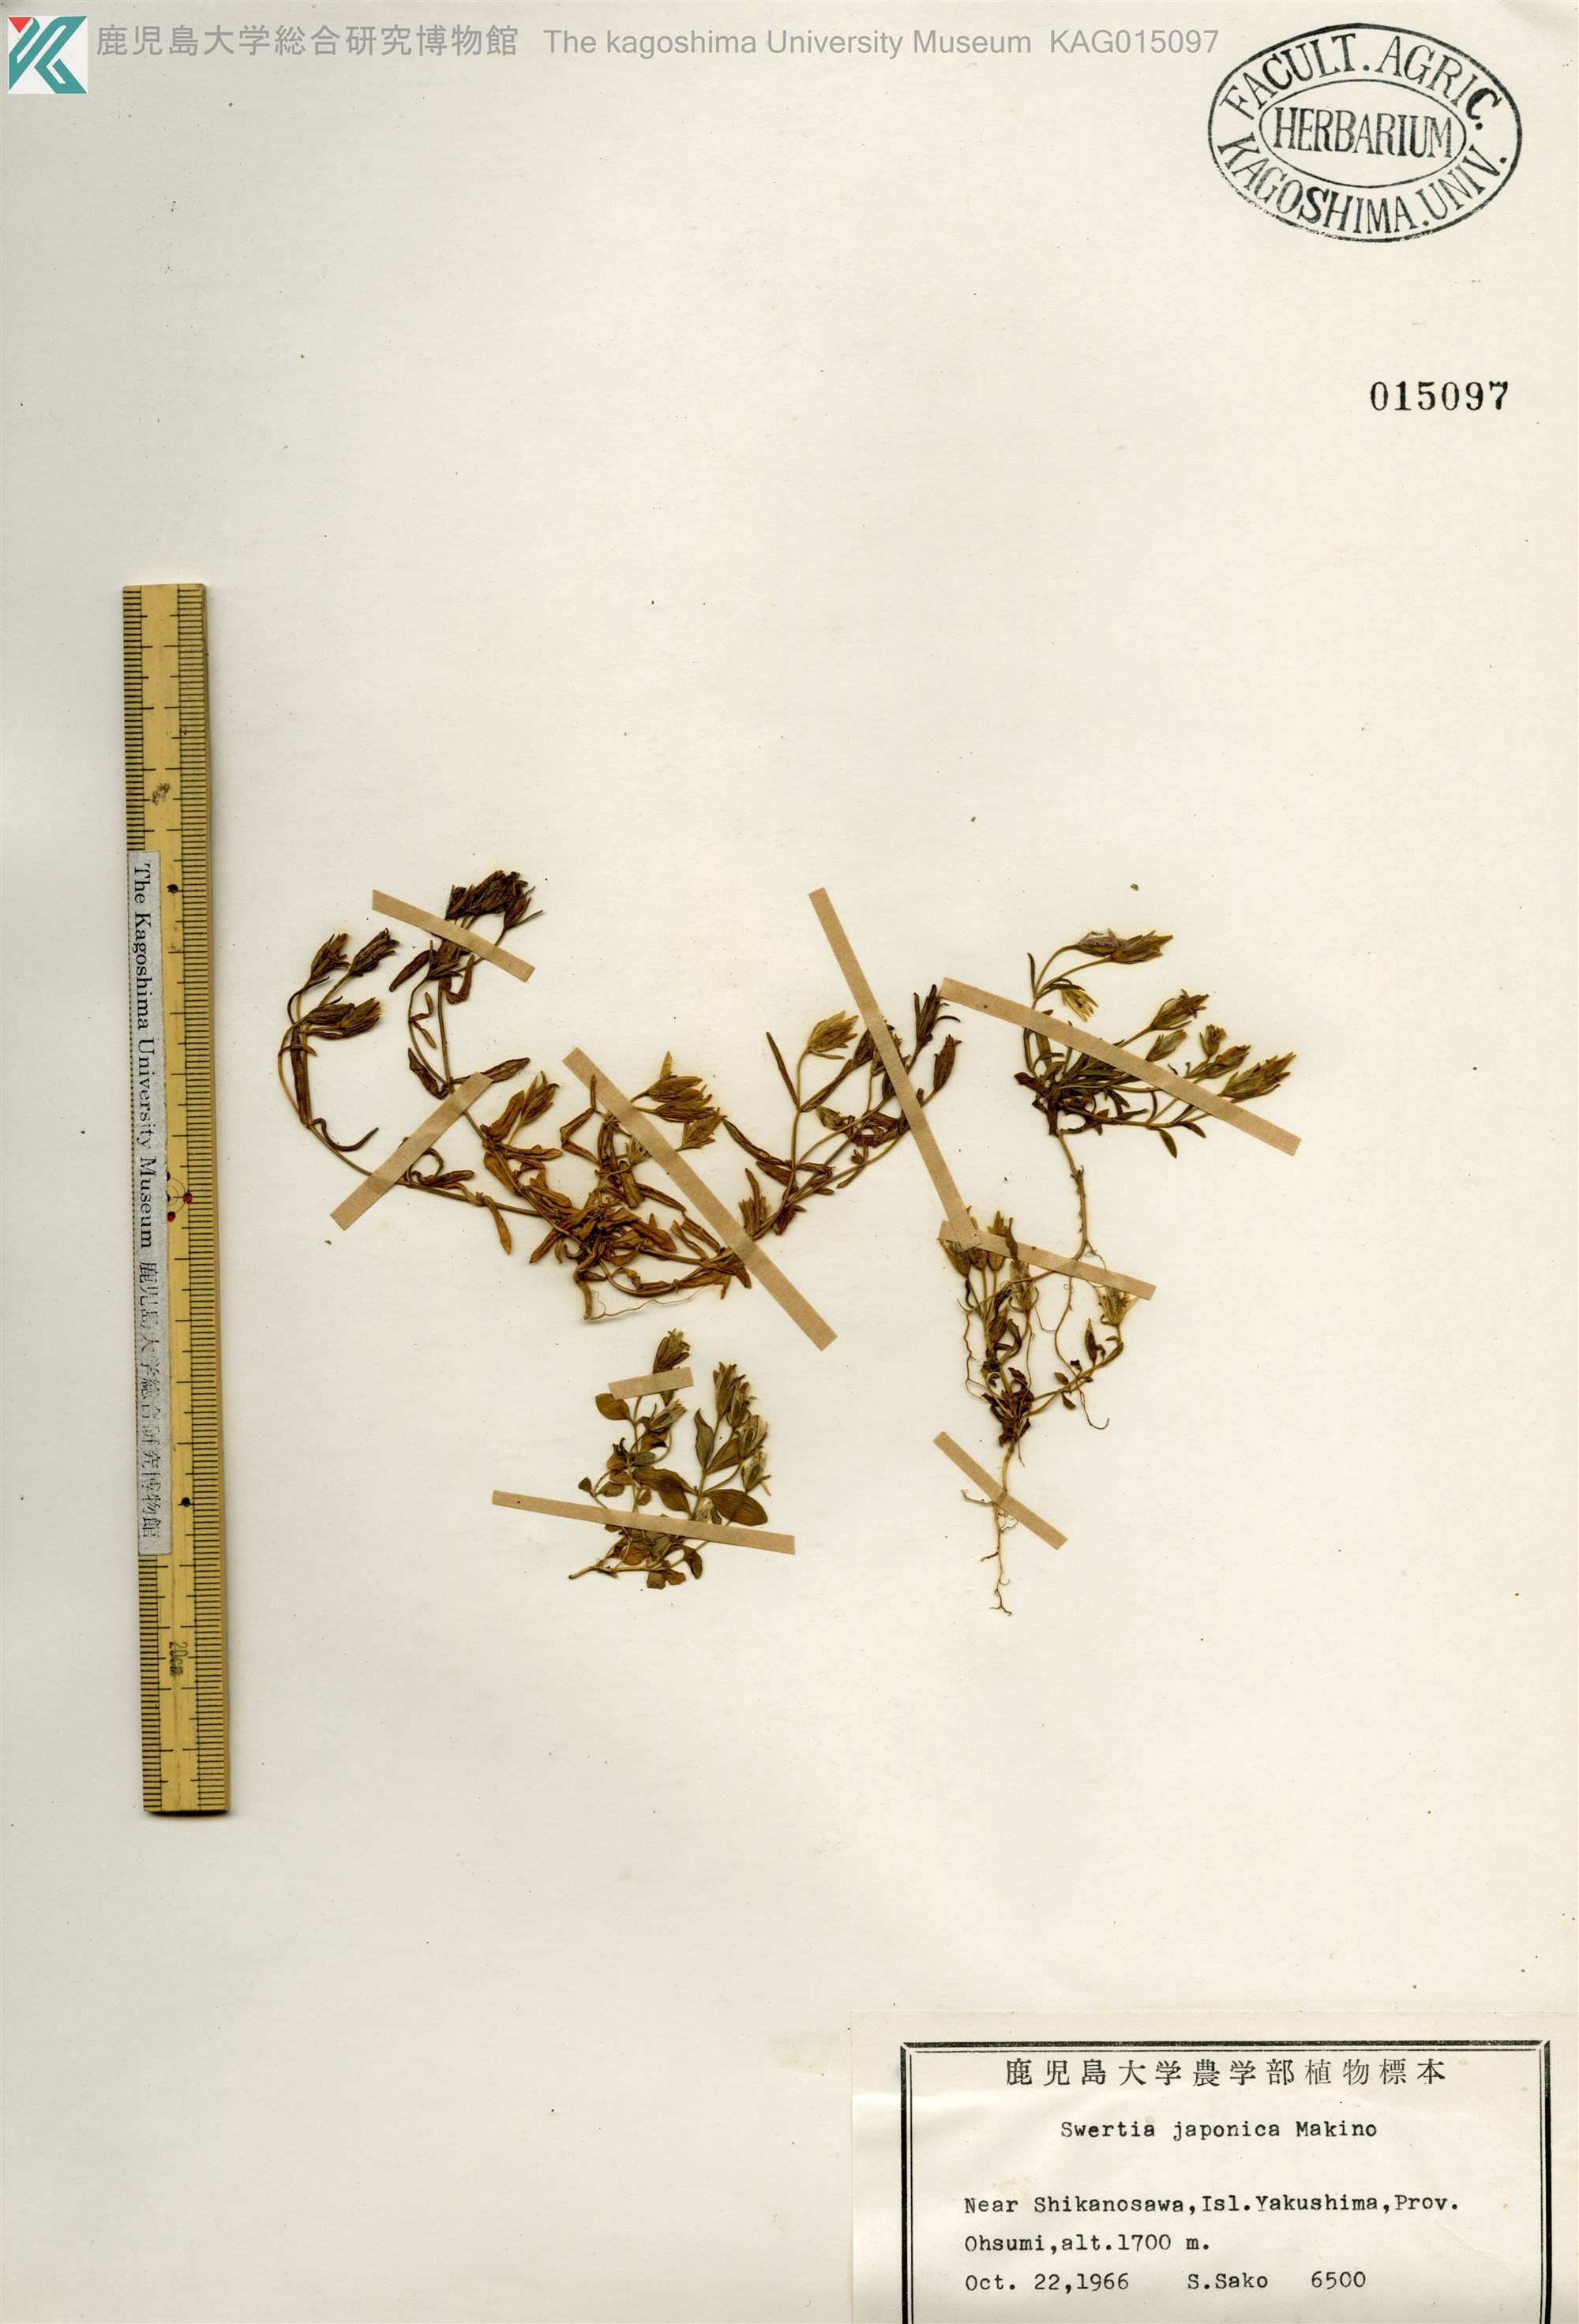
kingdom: Plantae
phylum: Tracheophyta
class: Magnoliopsida
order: Gentianales
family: Gentianaceae
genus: Swertia
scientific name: Swertia japonica
